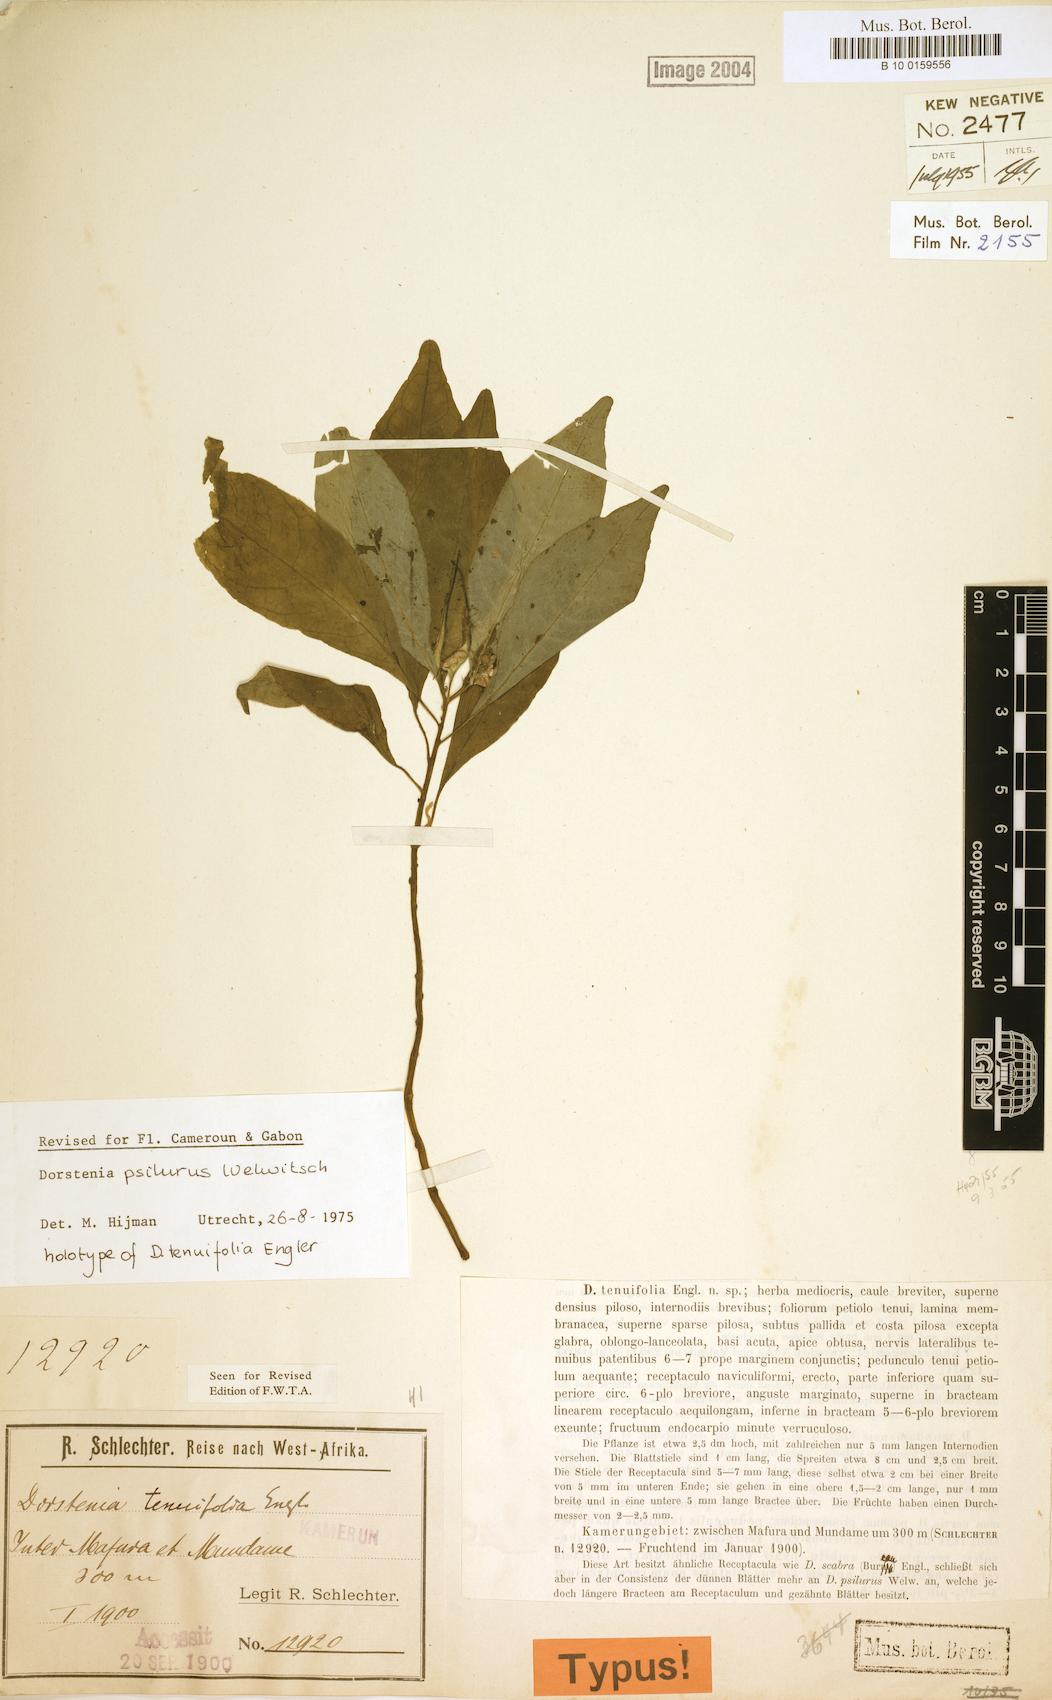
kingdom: Plantae
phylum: Tracheophyta
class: Magnoliopsida
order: Rosales
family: Moraceae
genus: Dorstenia
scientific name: Dorstenia psilurus
